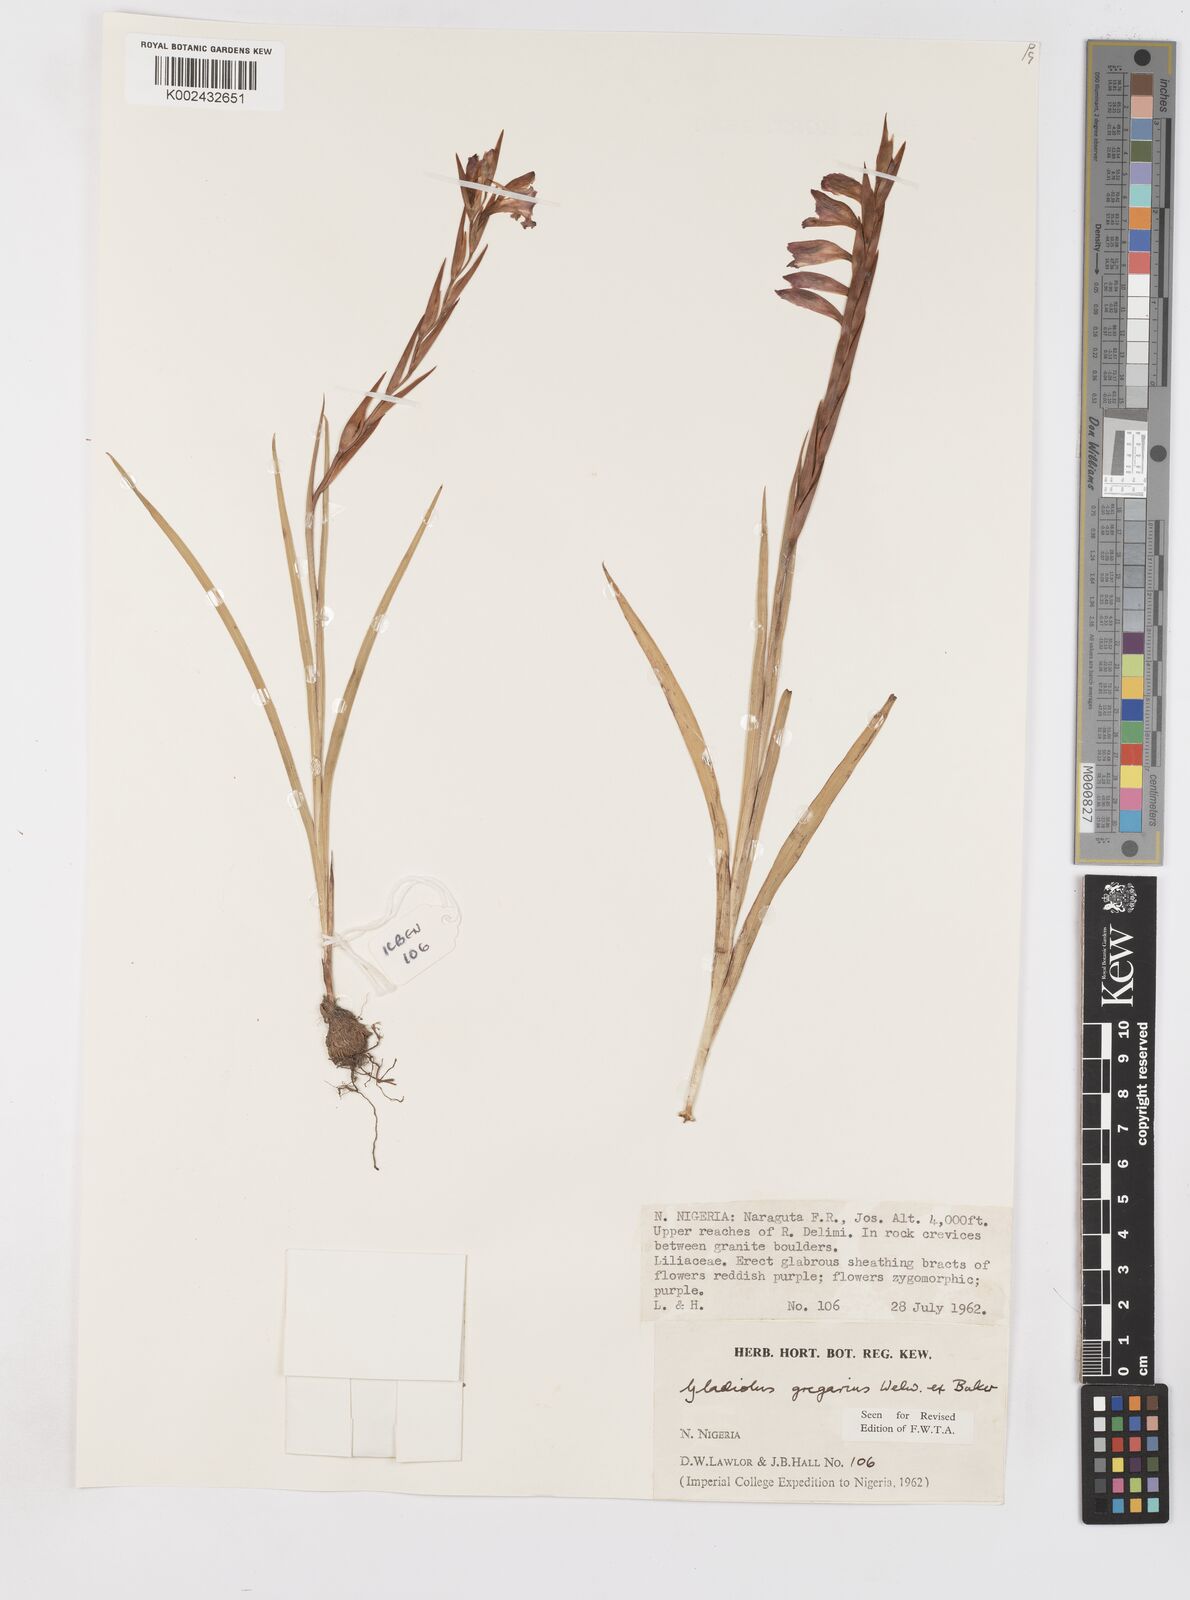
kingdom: Plantae
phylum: Tracheophyta
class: Liliopsida
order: Asparagales
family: Iridaceae
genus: Gladiolus
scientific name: Gladiolus gregarius
